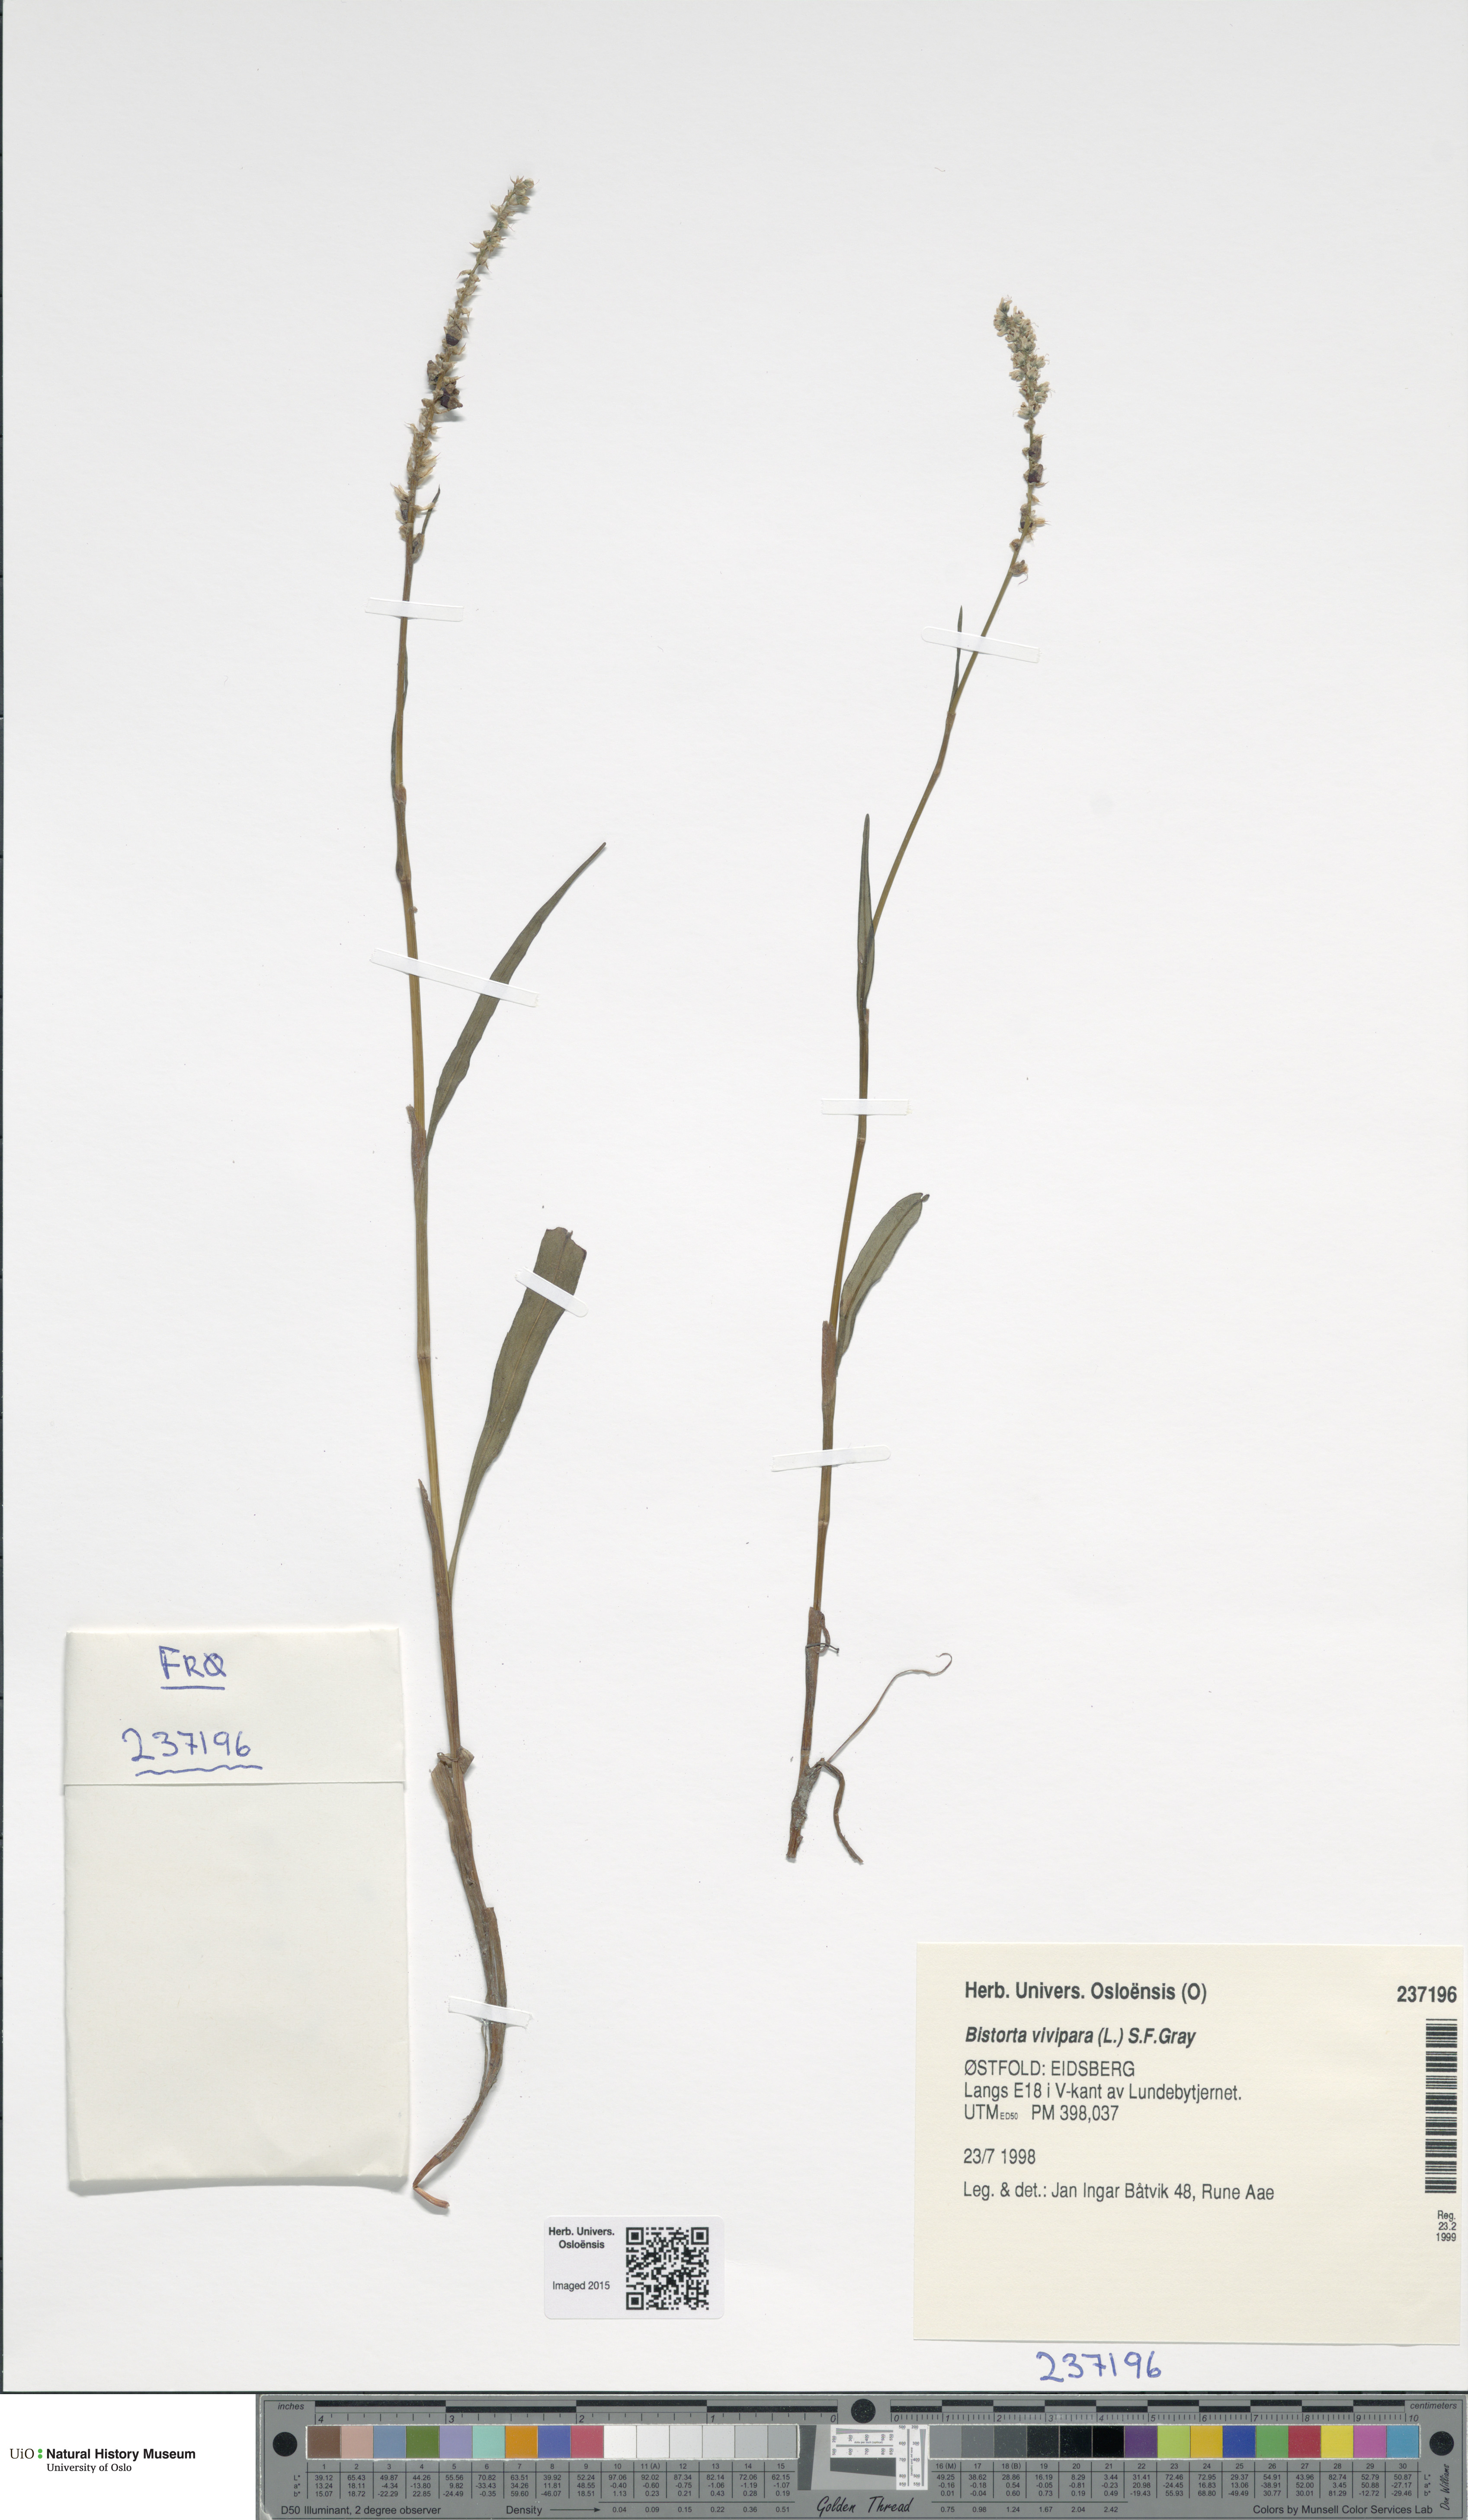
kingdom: Plantae
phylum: Tracheophyta
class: Magnoliopsida
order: Caryophyllales
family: Polygonaceae
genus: Bistorta
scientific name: Bistorta vivipara
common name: Alpine bistort
